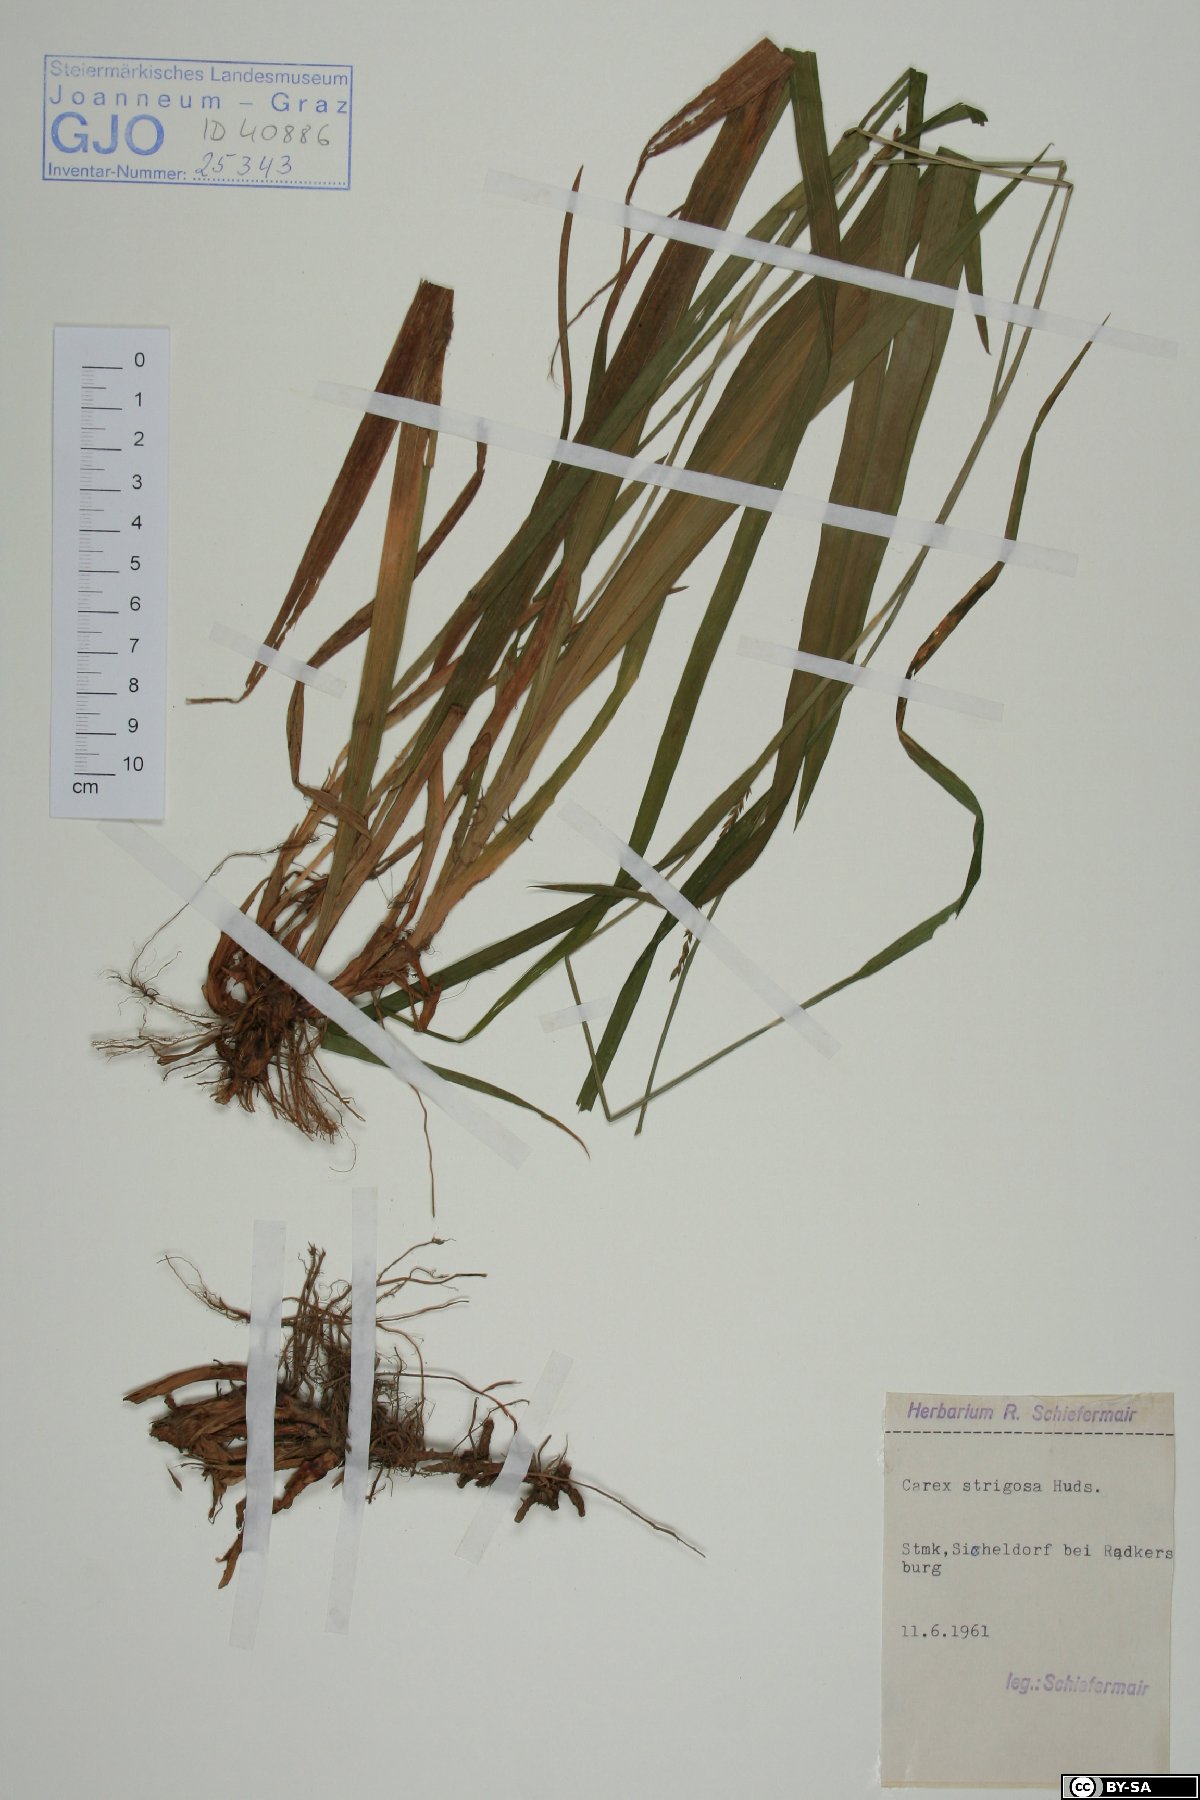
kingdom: Plantae
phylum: Tracheophyta
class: Liliopsida
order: Poales
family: Cyperaceae
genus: Carex
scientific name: Carex strigosa
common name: Thin-spiked wood-sedge
